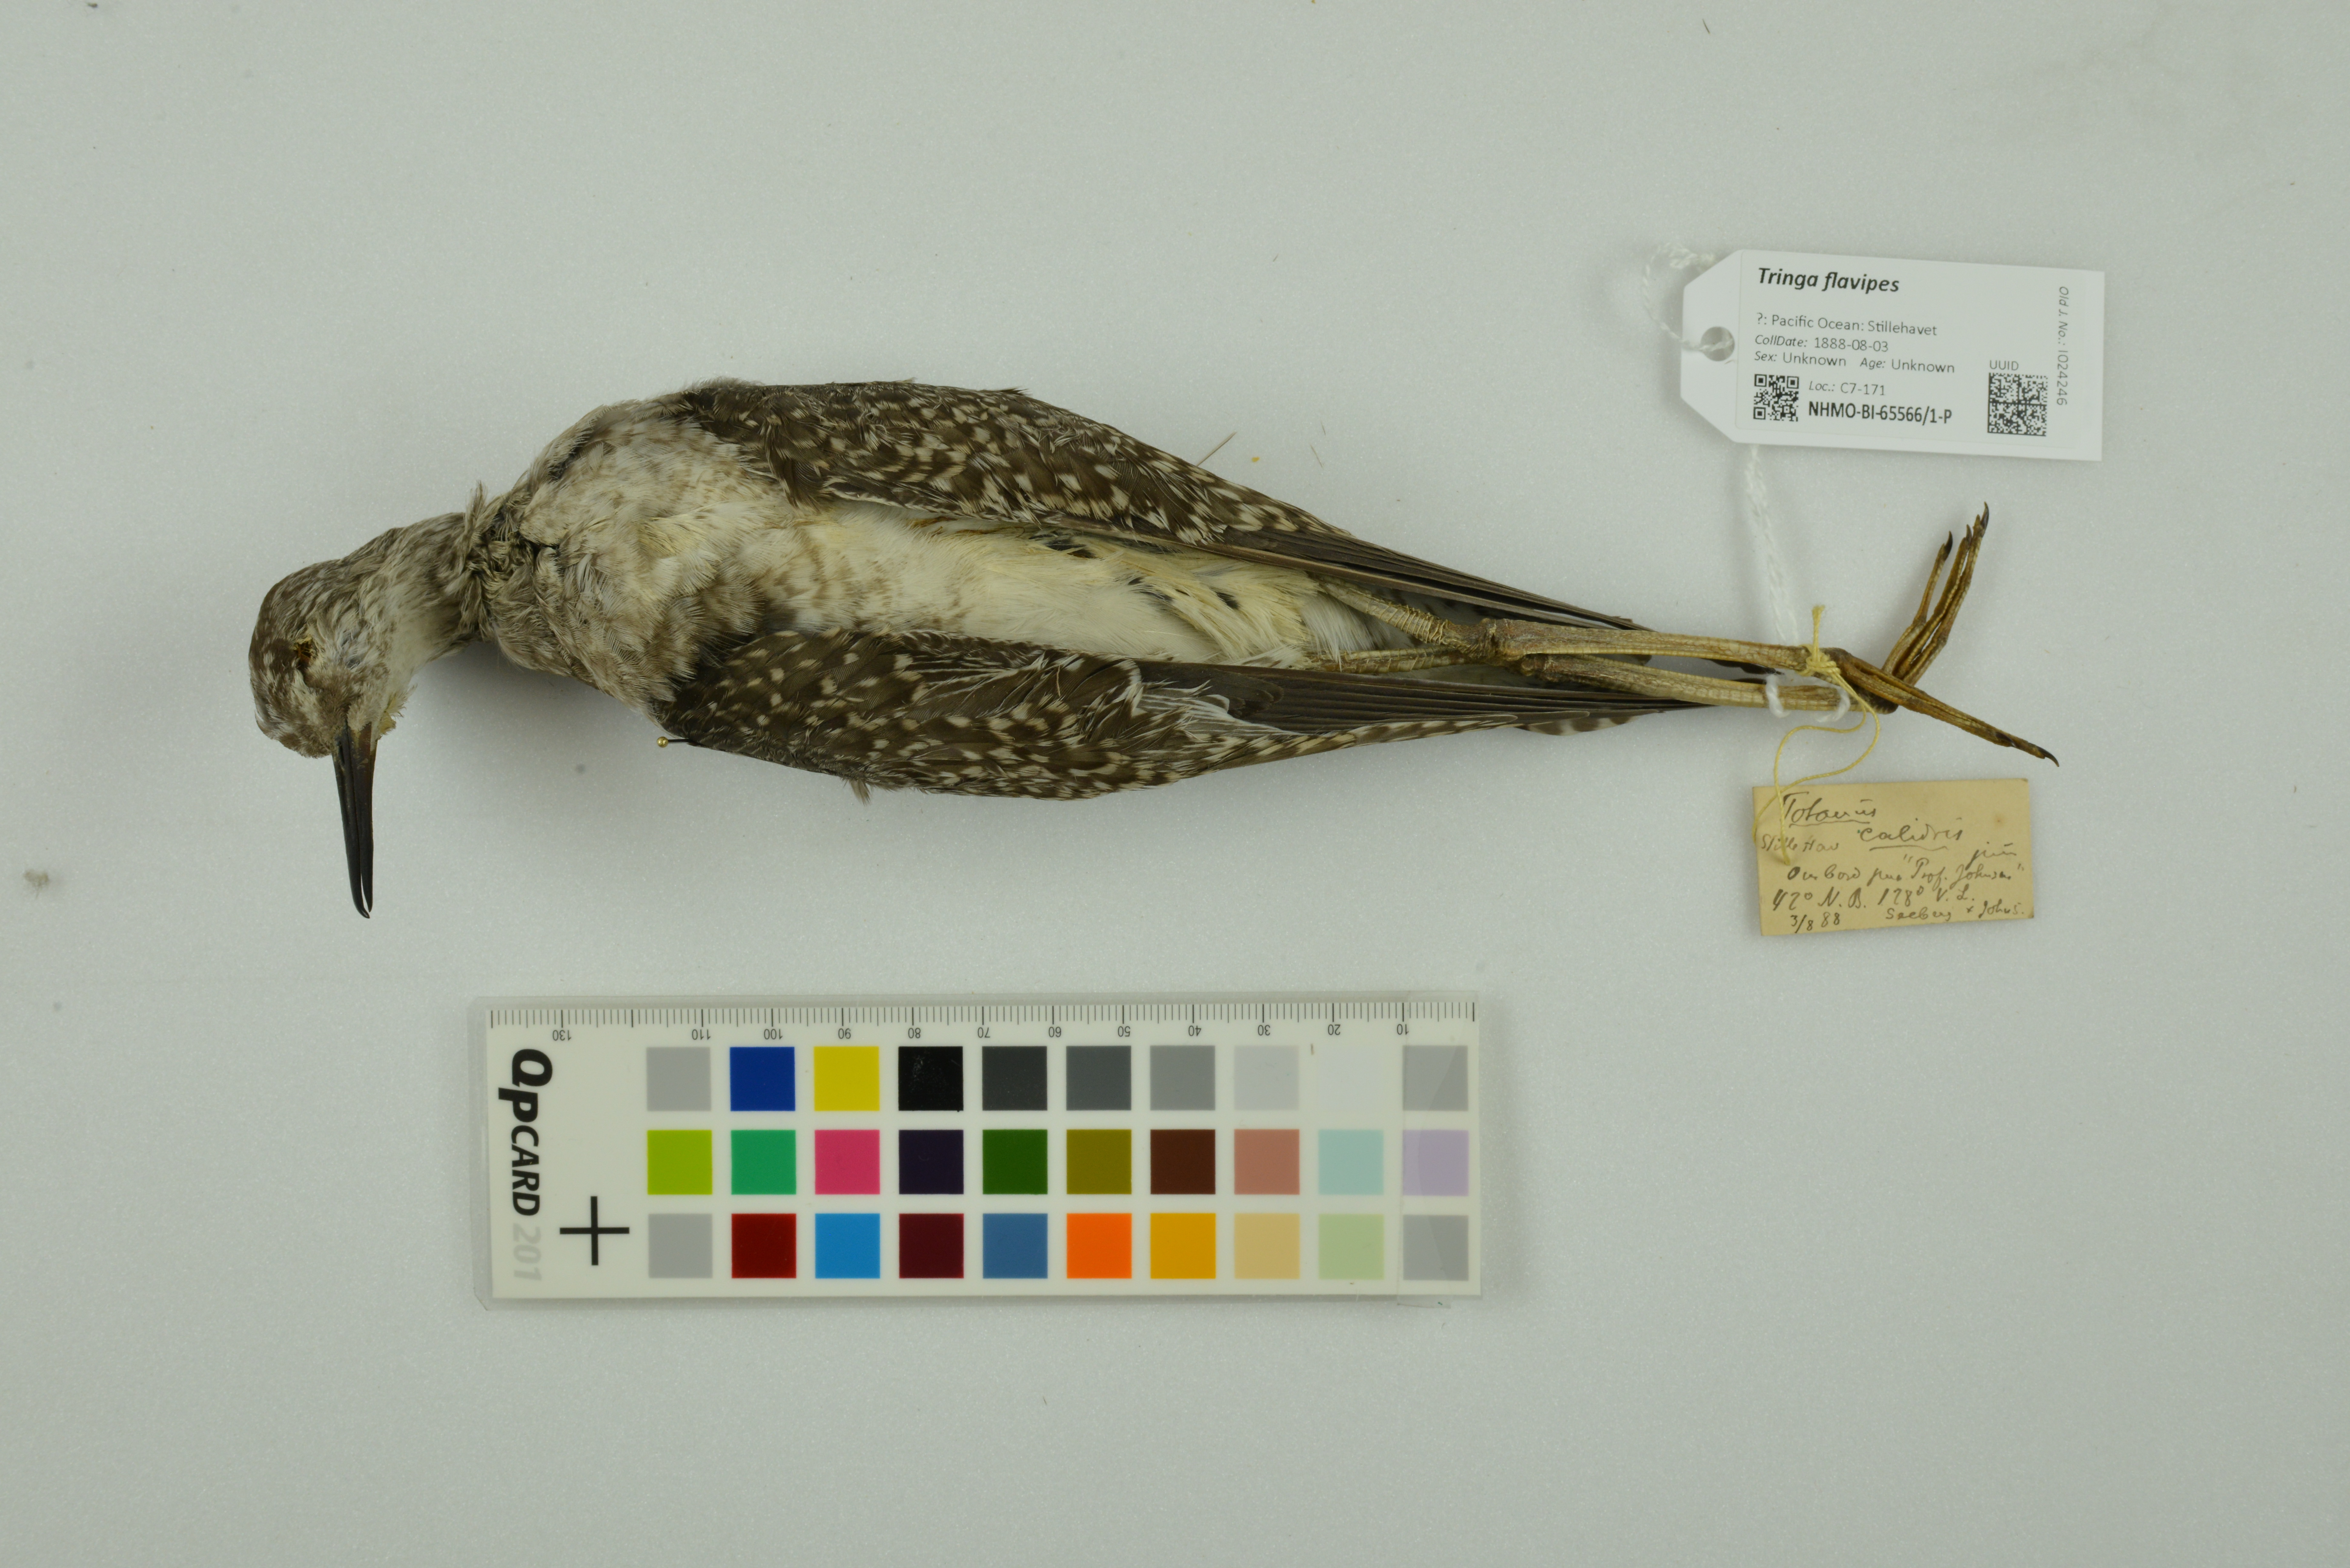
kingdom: Animalia
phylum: Chordata
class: Aves
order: Charadriiformes
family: Scolopacidae
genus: Tringa
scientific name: Tringa flavipes
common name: Lesser yellowlegs
